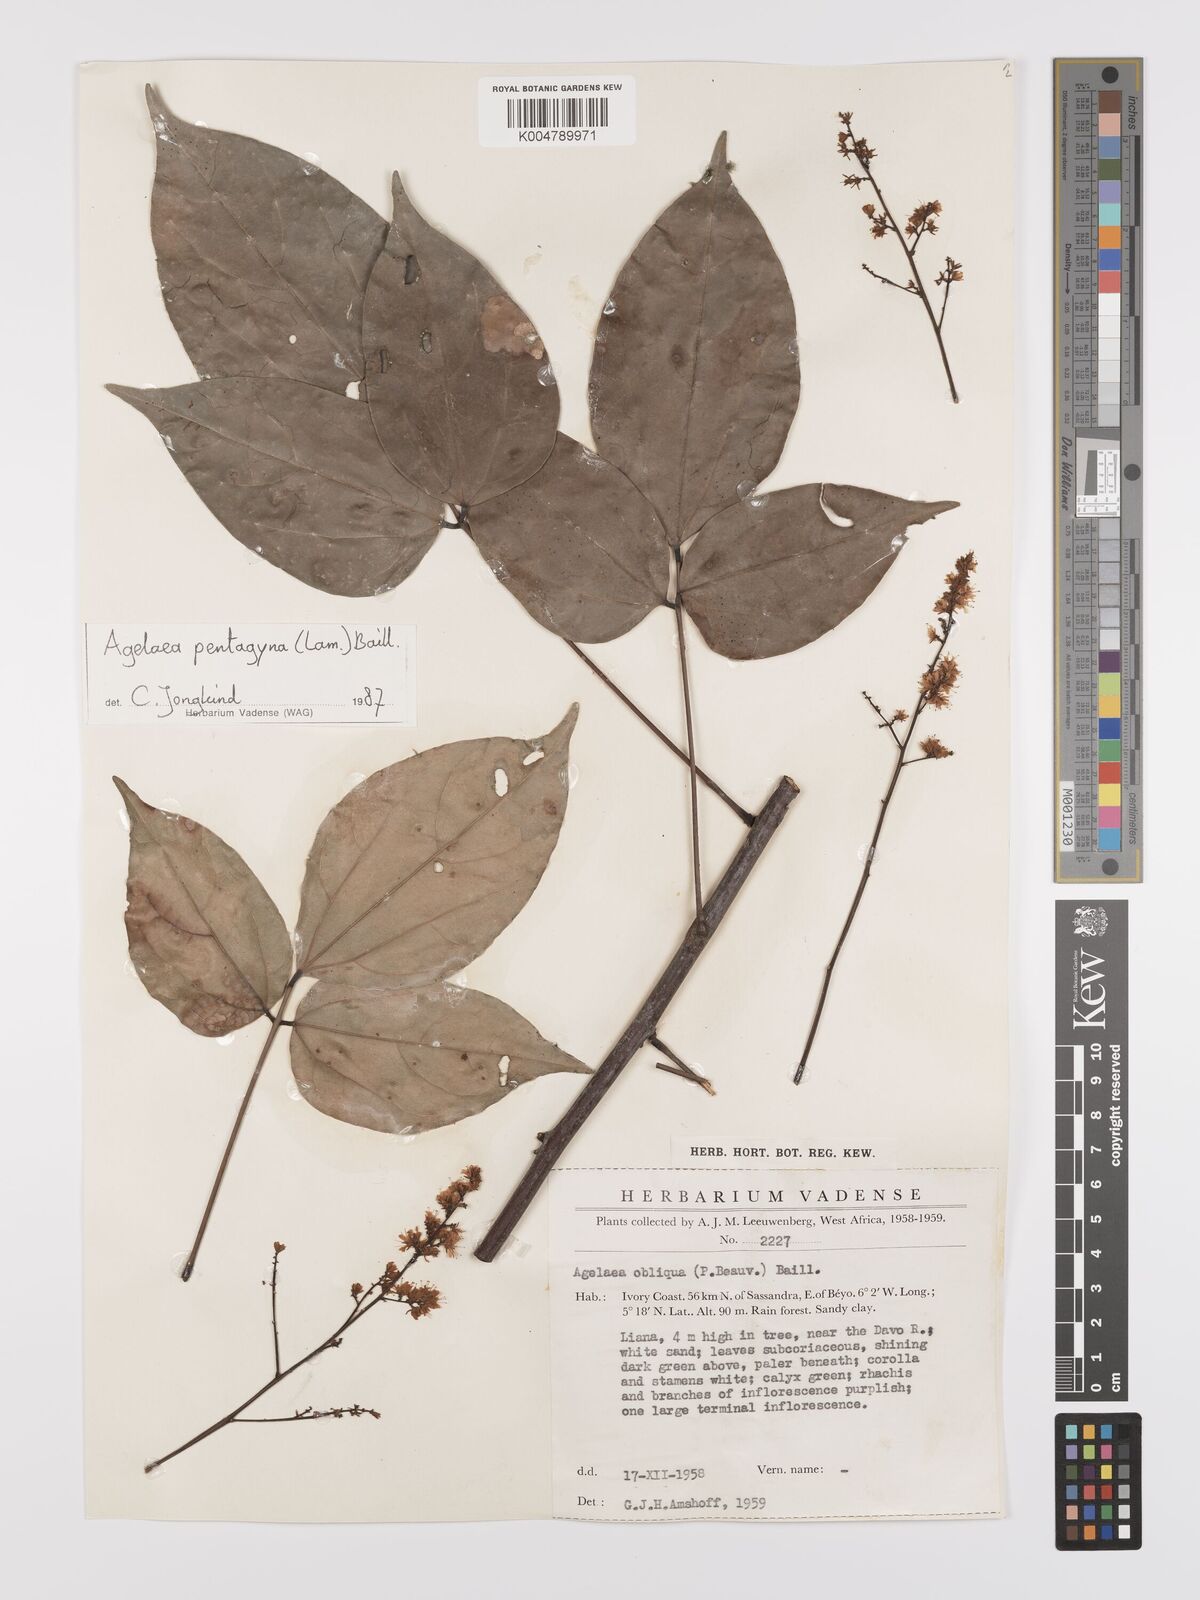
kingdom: Plantae
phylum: Tracheophyta
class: Magnoliopsida
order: Oxalidales
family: Connaraceae
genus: Agelaea
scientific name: Agelaea pentagyna
